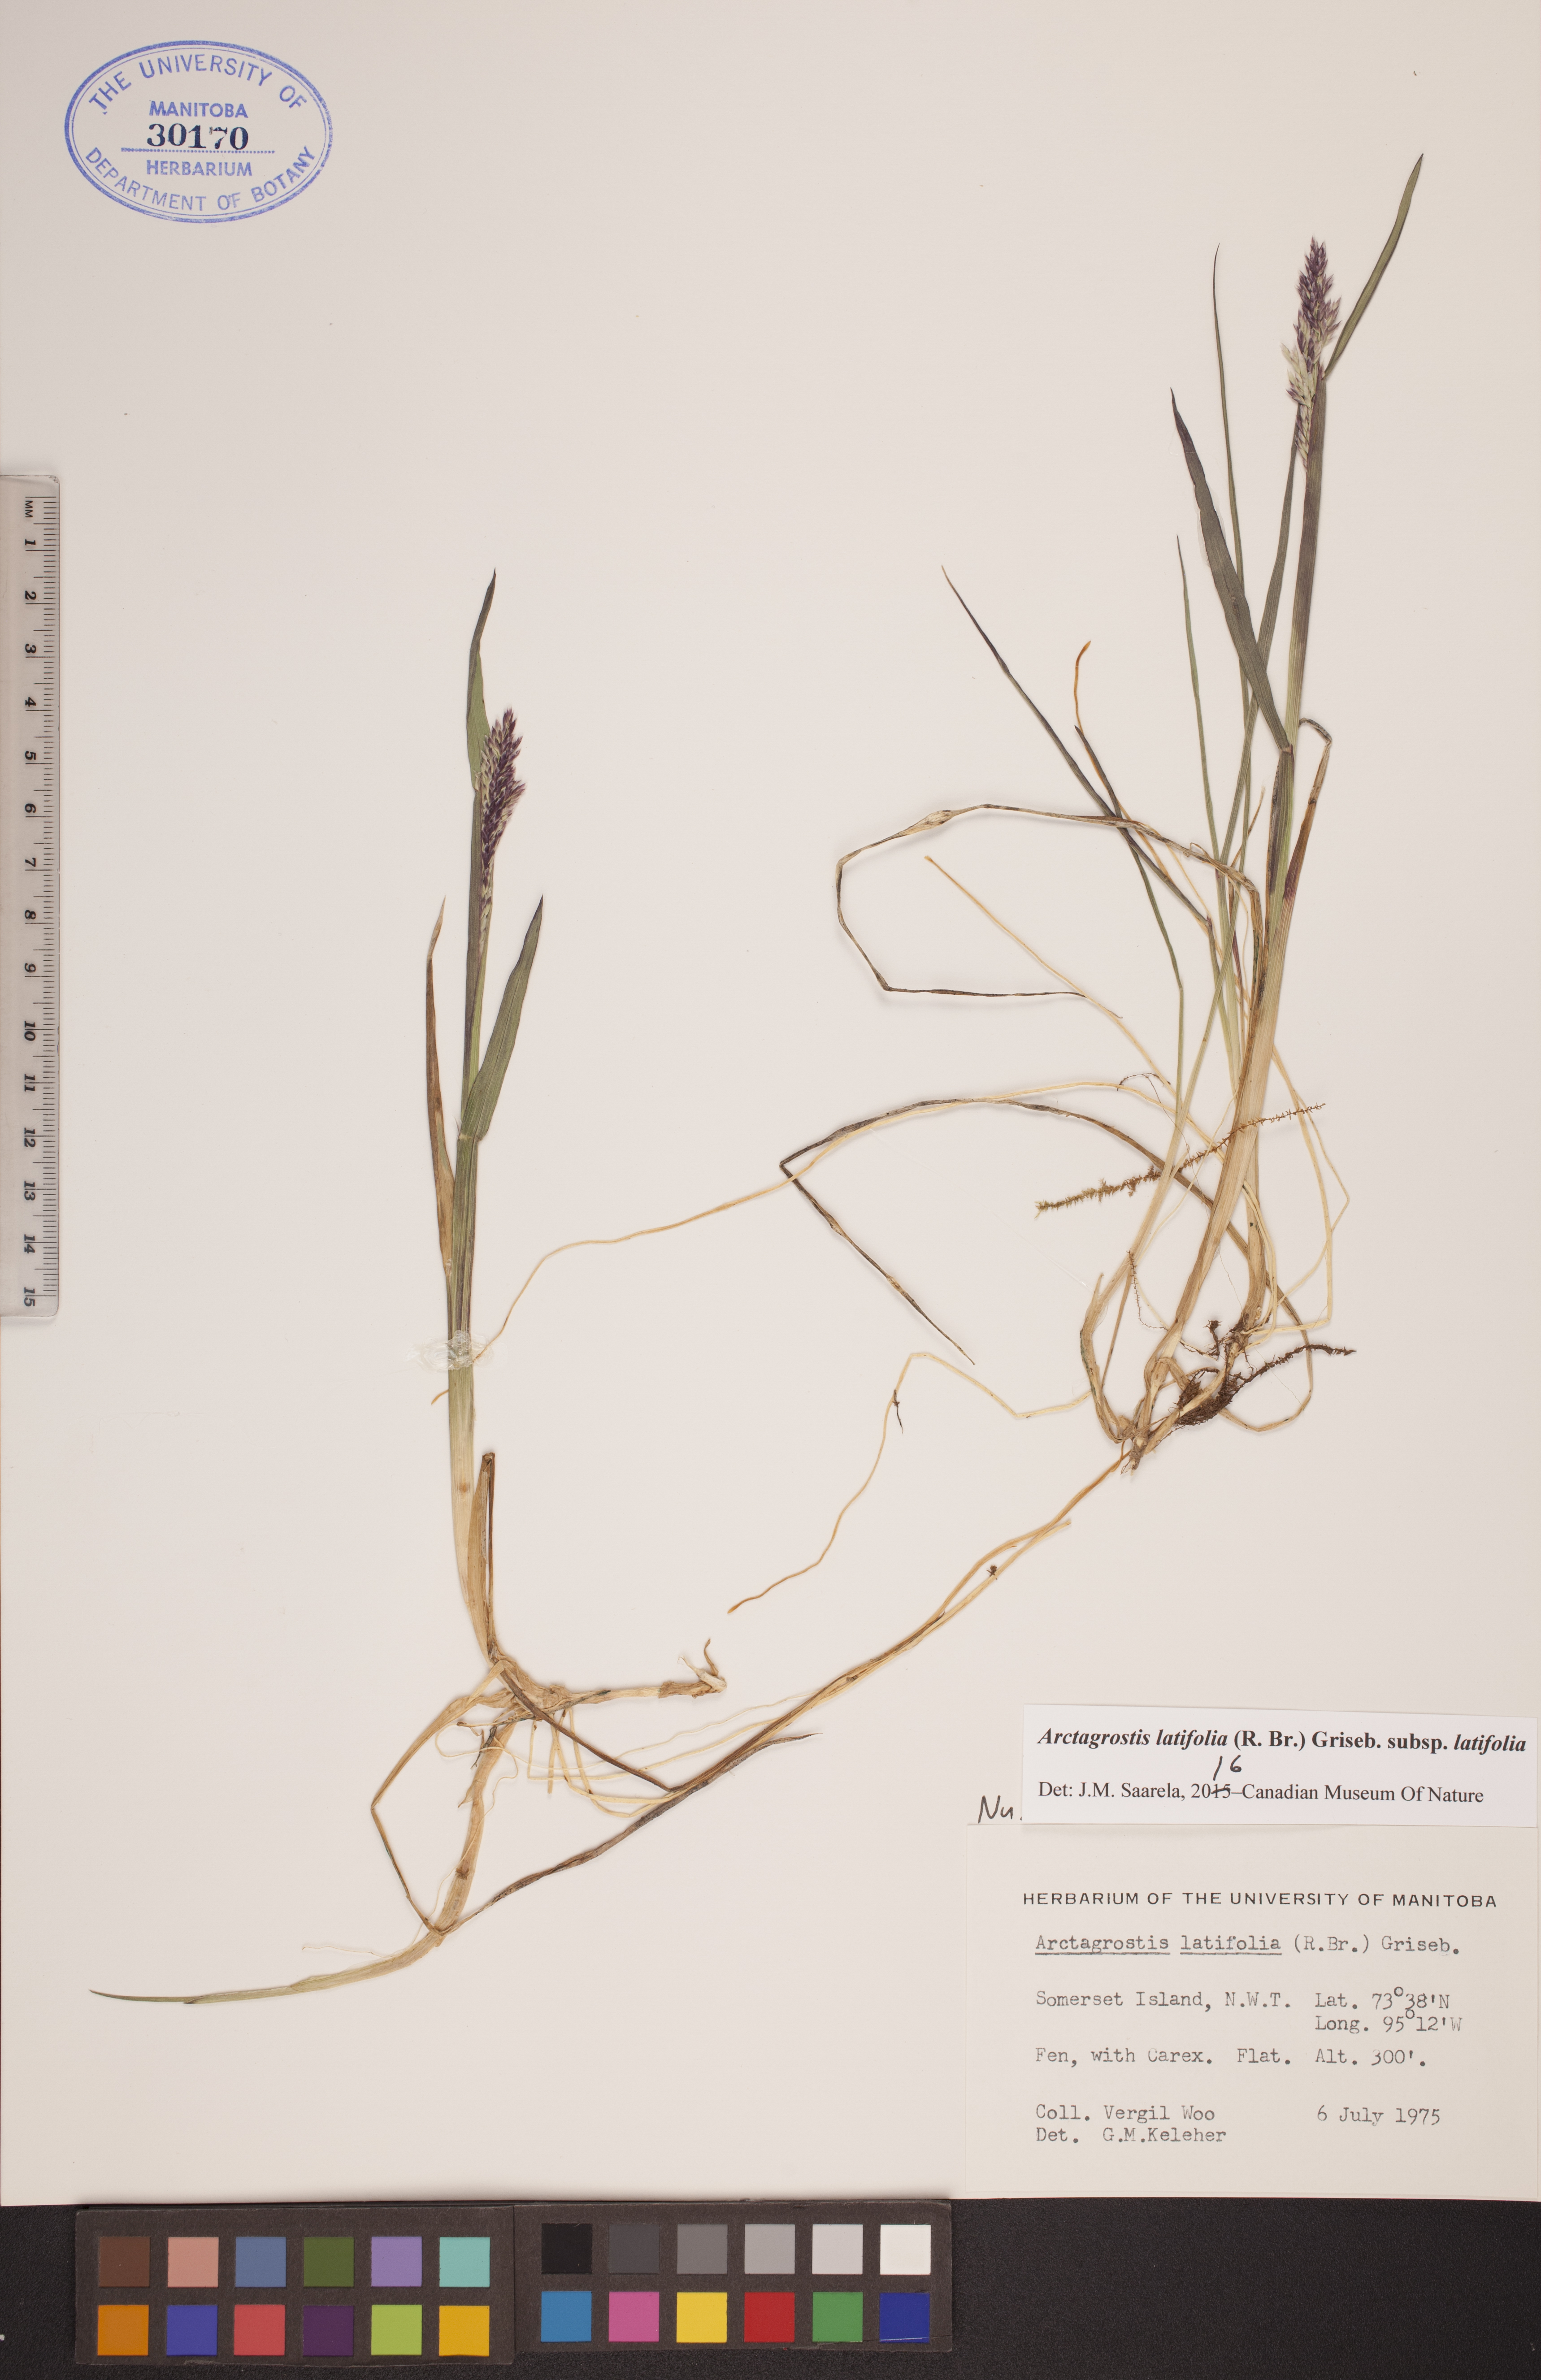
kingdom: Plantae
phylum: Tracheophyta
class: Liliopsida
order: Poales
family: Poaceae
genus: Arctagrostis
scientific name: Arctagrostis latifolia
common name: Arctic grass
